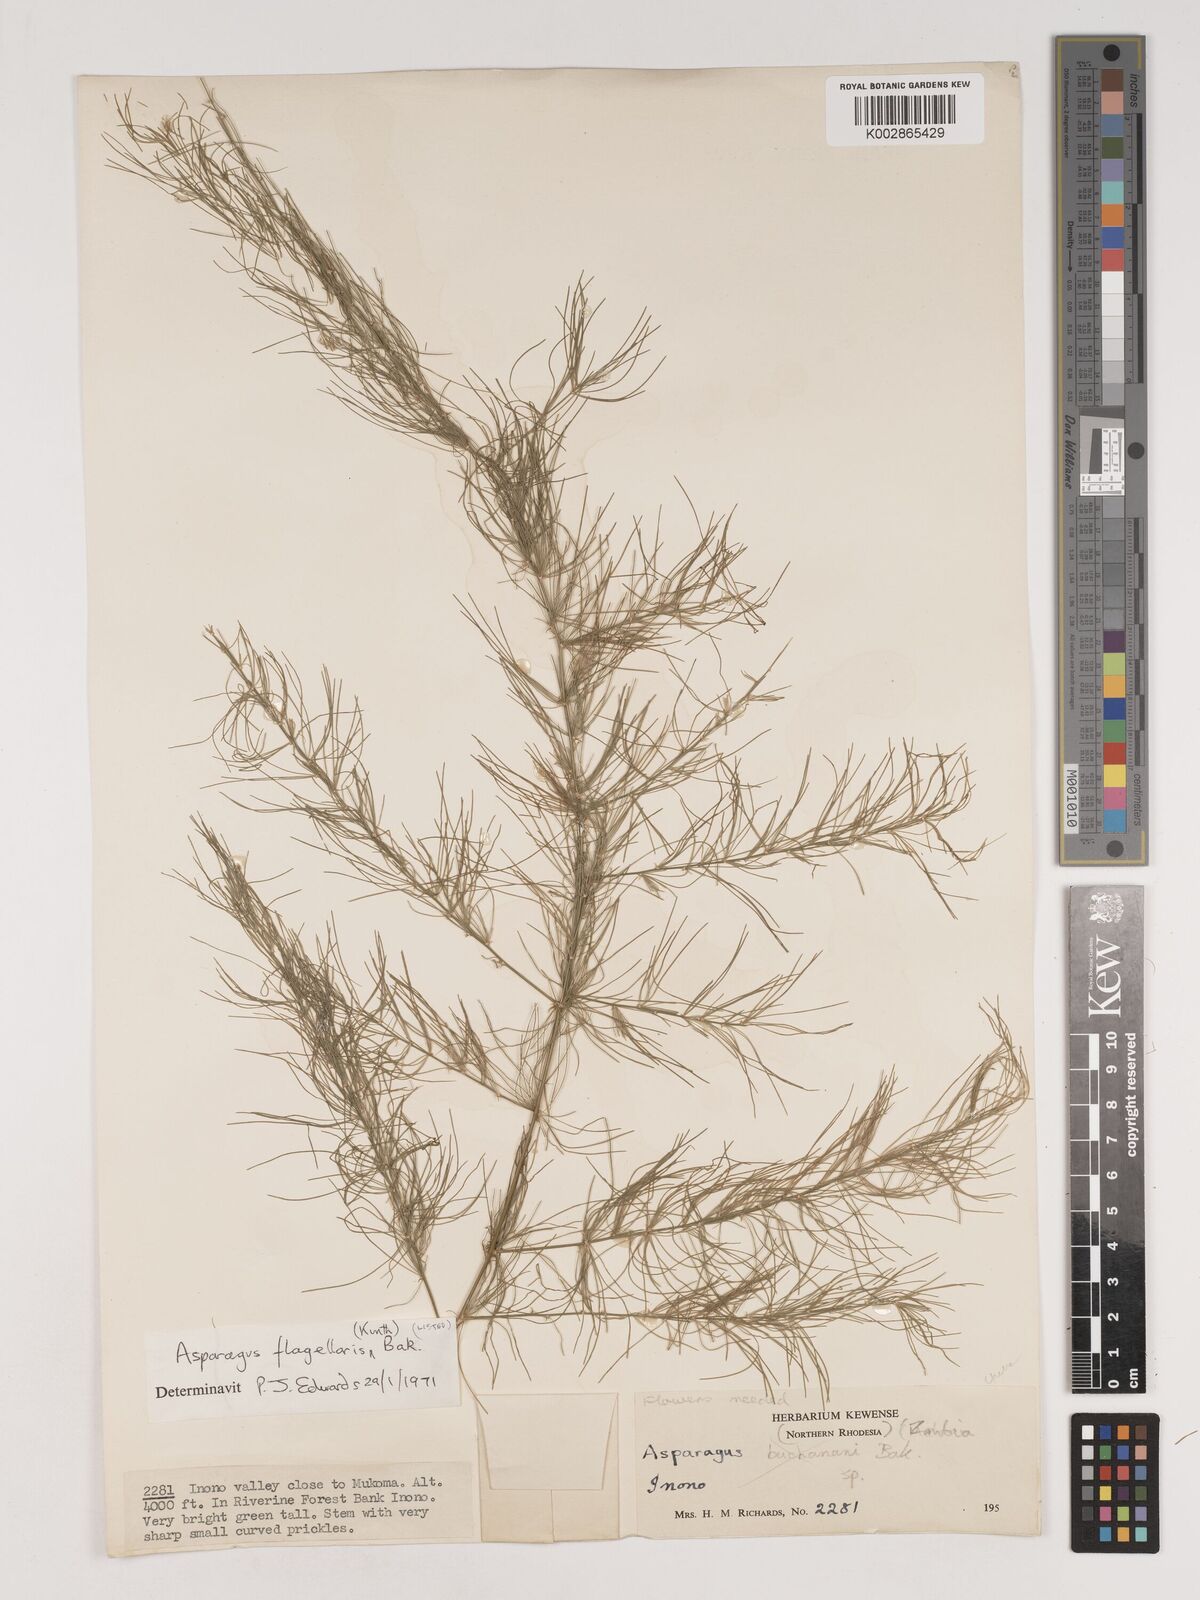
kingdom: Plantae
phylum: Tracheophyta
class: Liliopsida
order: Asparagales
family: Asparagaceae
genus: Asparagus
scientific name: Asparagus flagellaris
